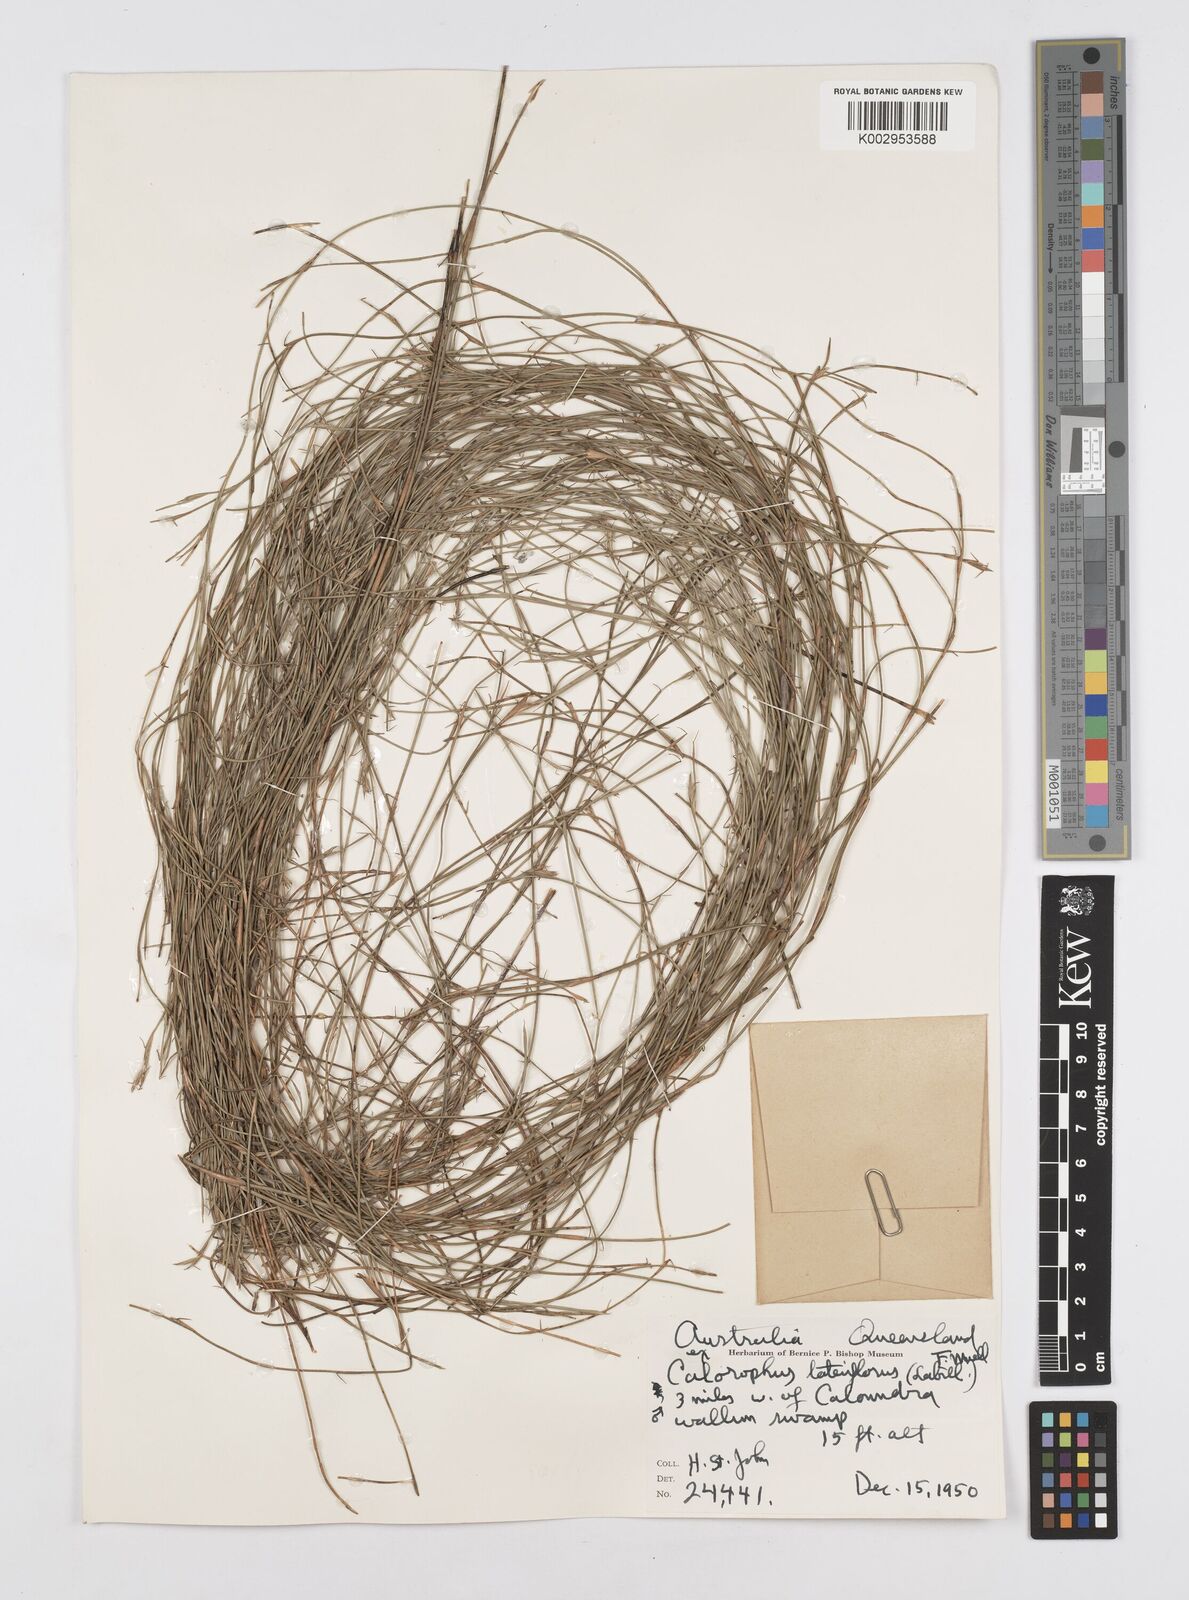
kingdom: Plantae
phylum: Tracheophyta
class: Liliopsida
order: Poales
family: Restionaceae
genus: Empodisma
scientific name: Empodisma minus
